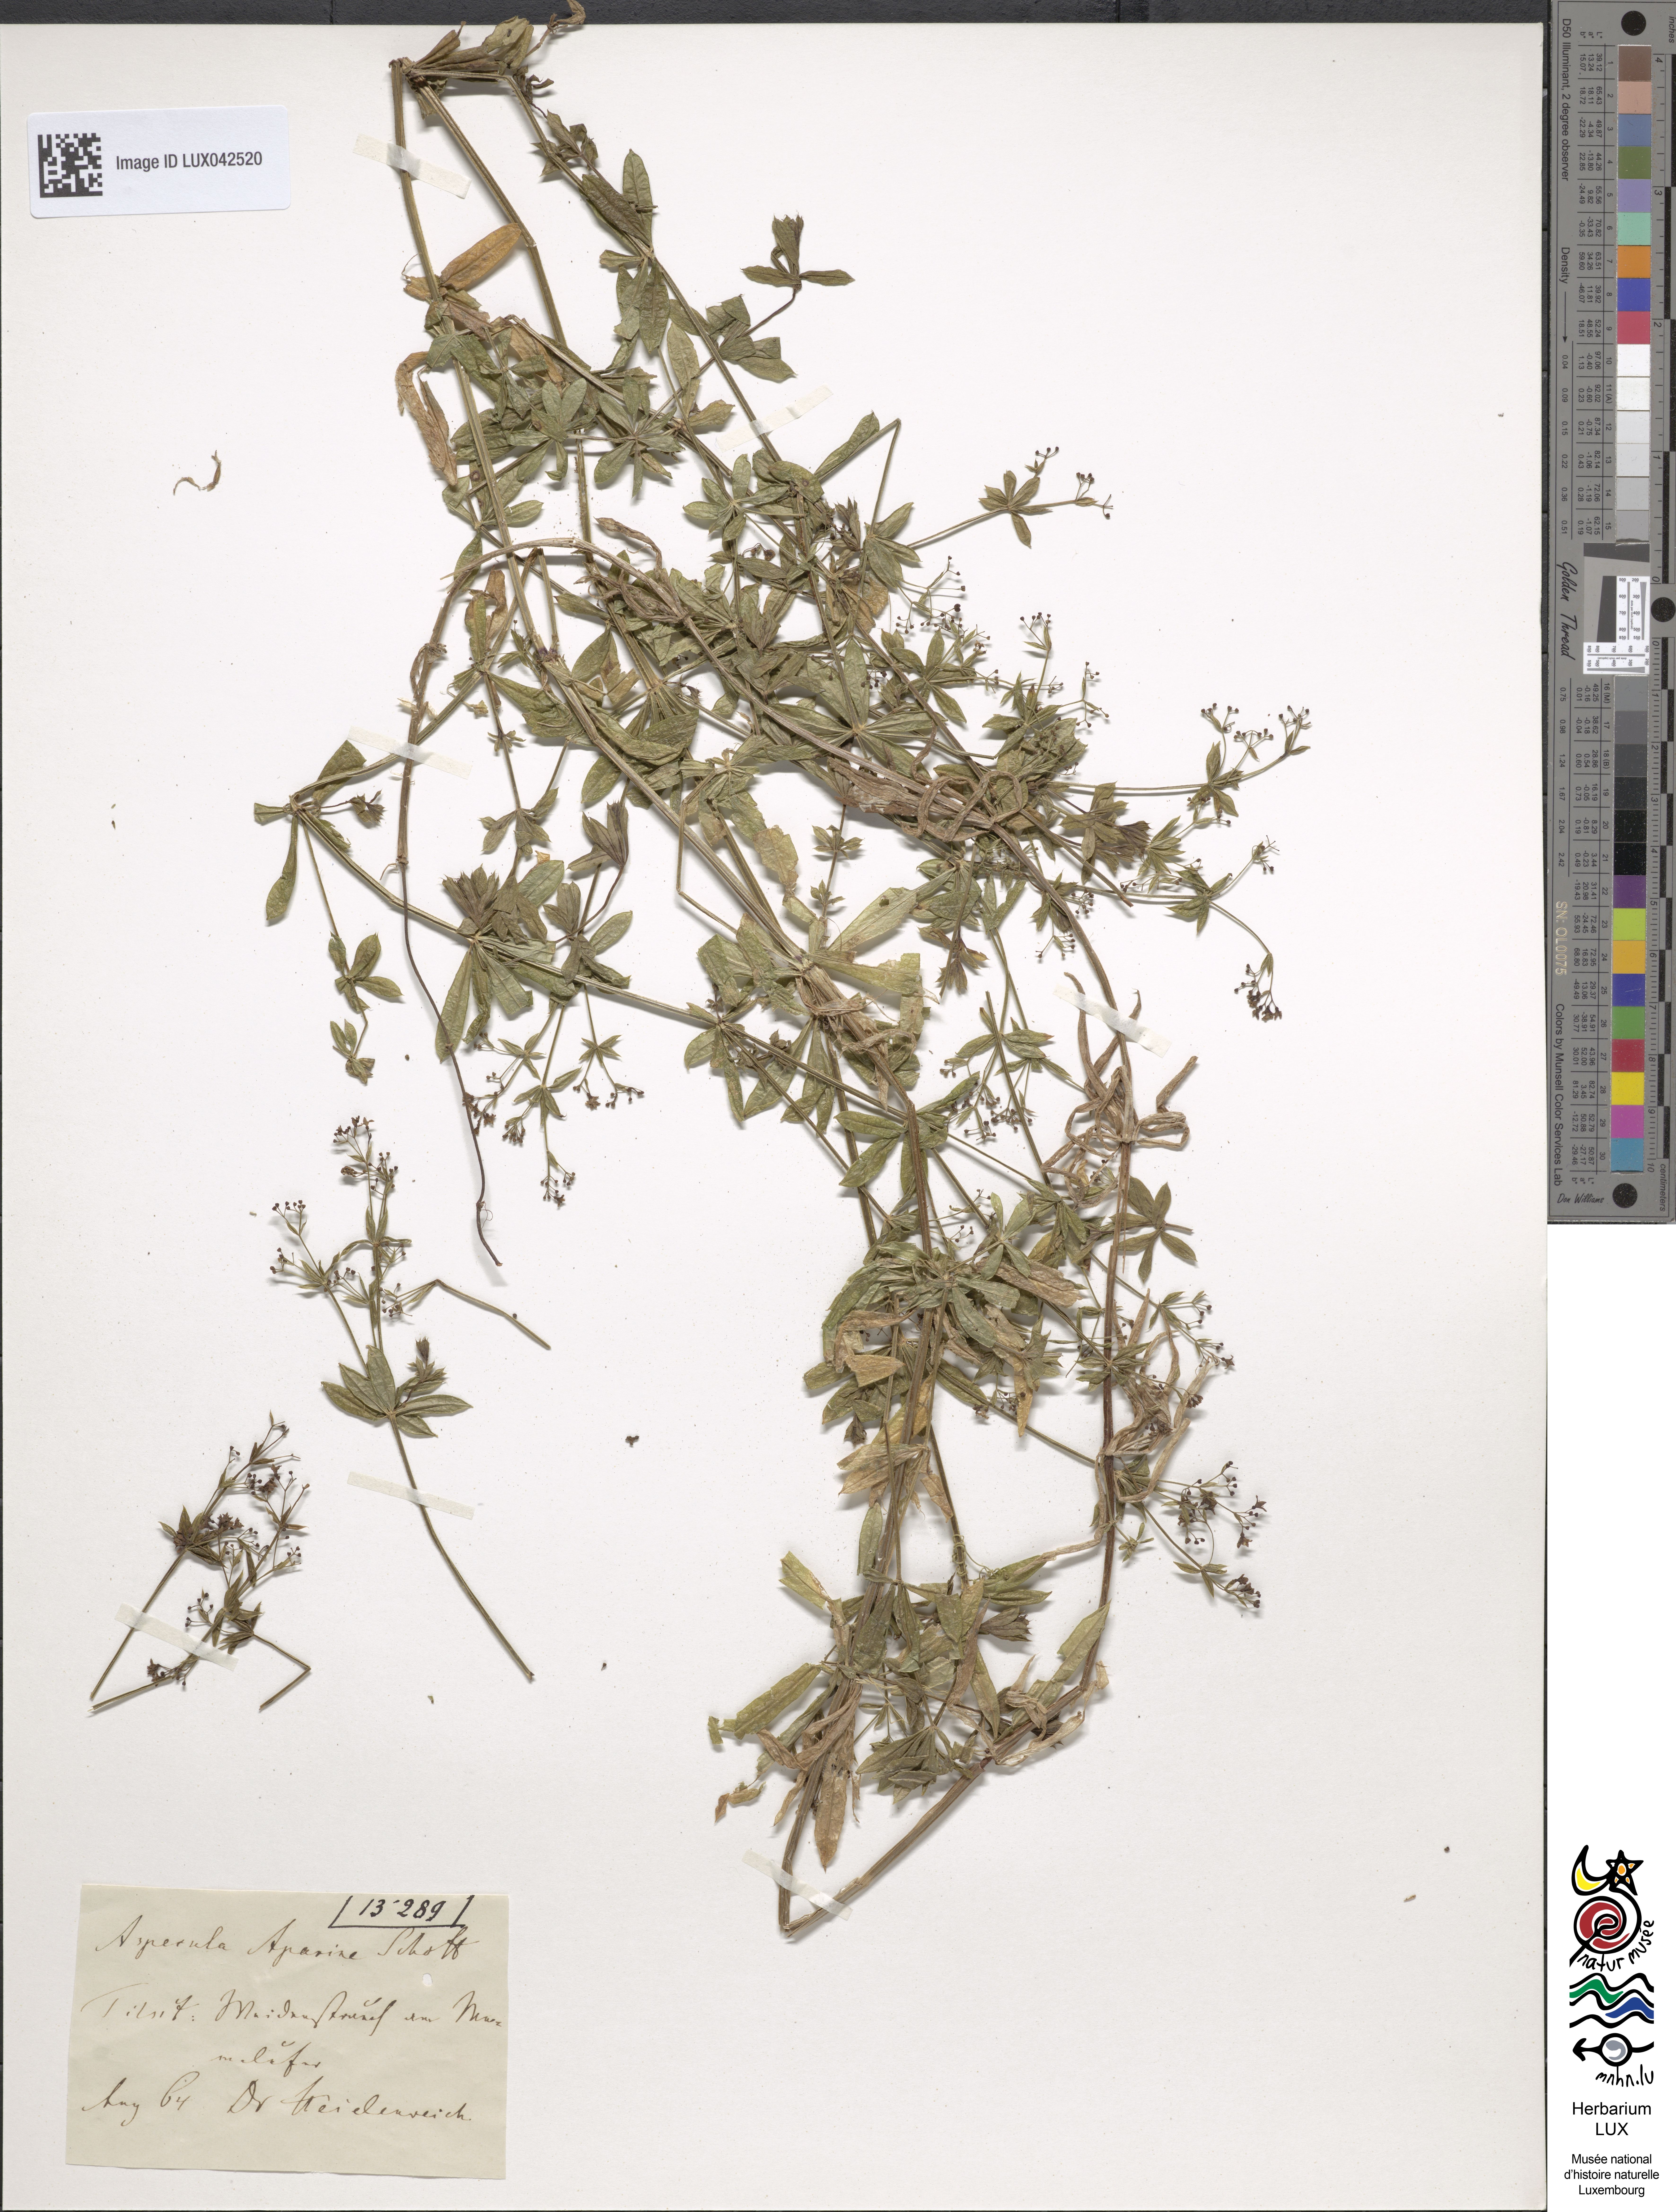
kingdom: Plantae
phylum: Tracheophyta
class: Magnoliopsida
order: Gentianales
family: Rubiaceae
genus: Galium
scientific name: Galium rivale
